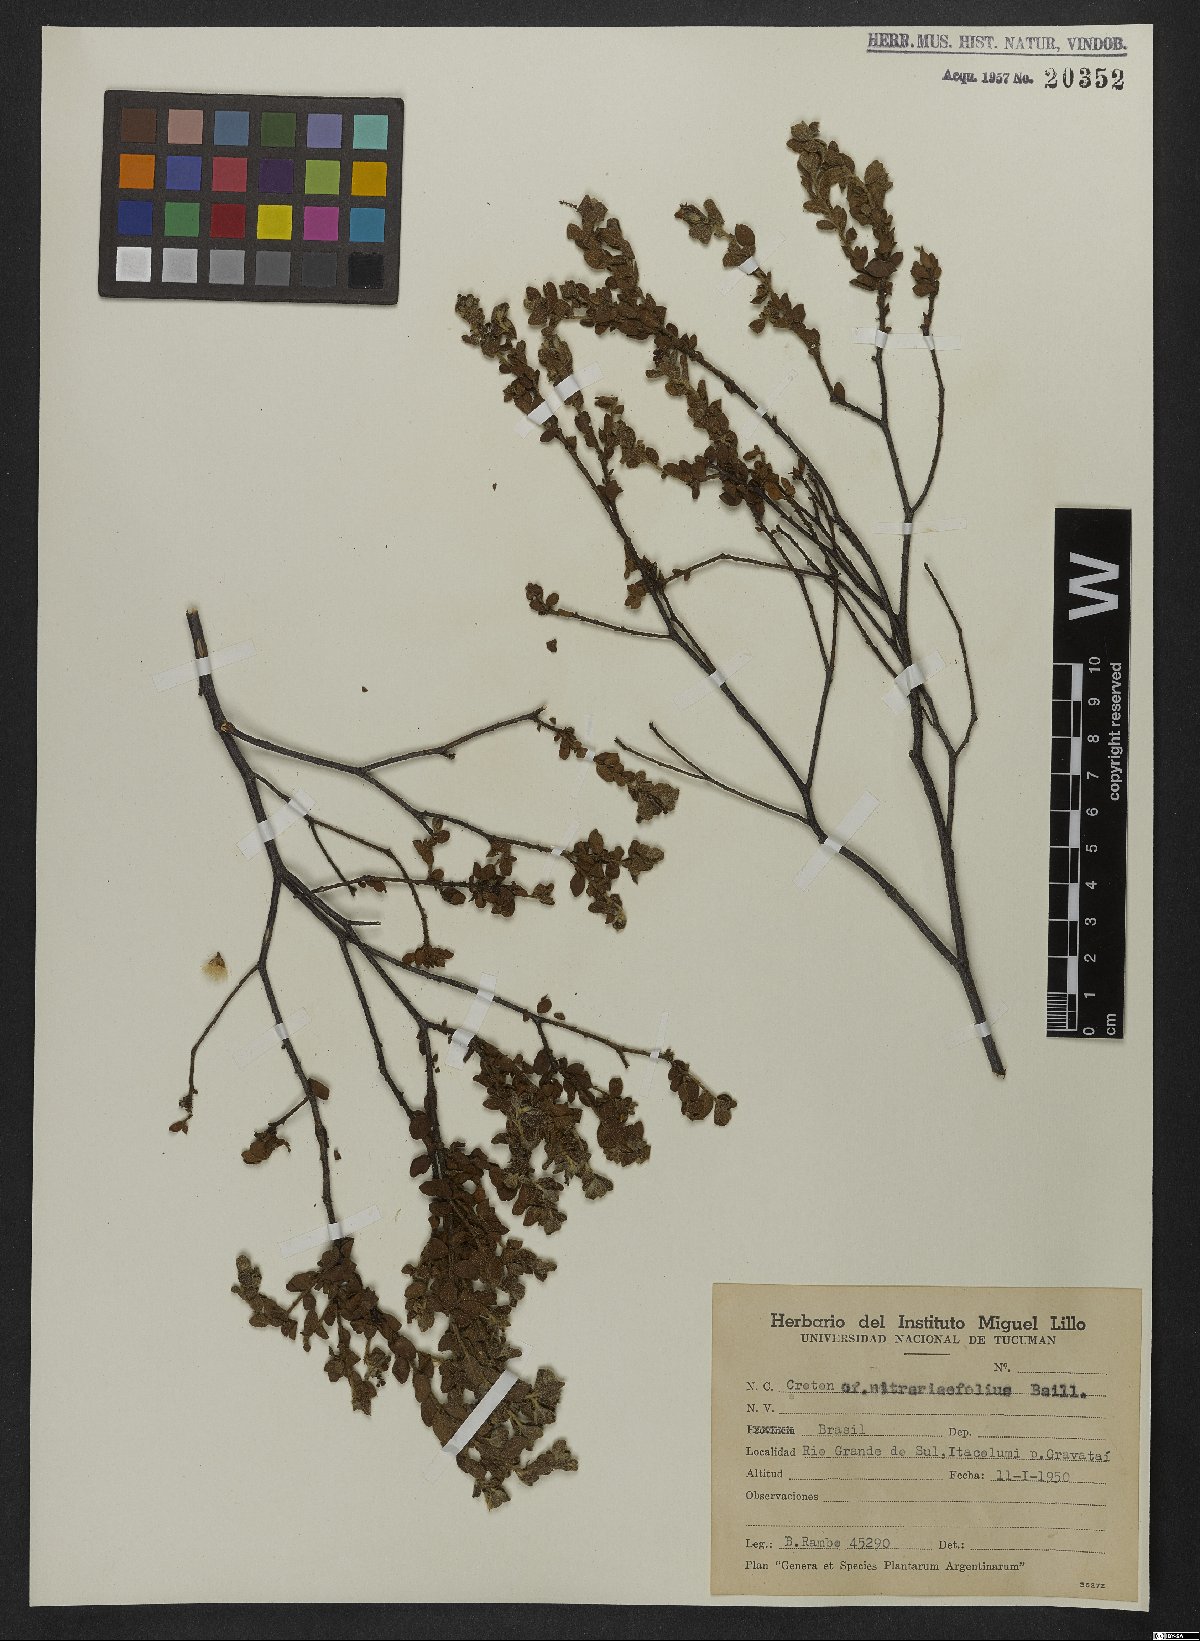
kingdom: Plantae
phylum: Tracheophyta
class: Magnoliopsida
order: Malpighiales
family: Euphorbiaceae
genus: Croton
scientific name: Croton nitrariaefolius
